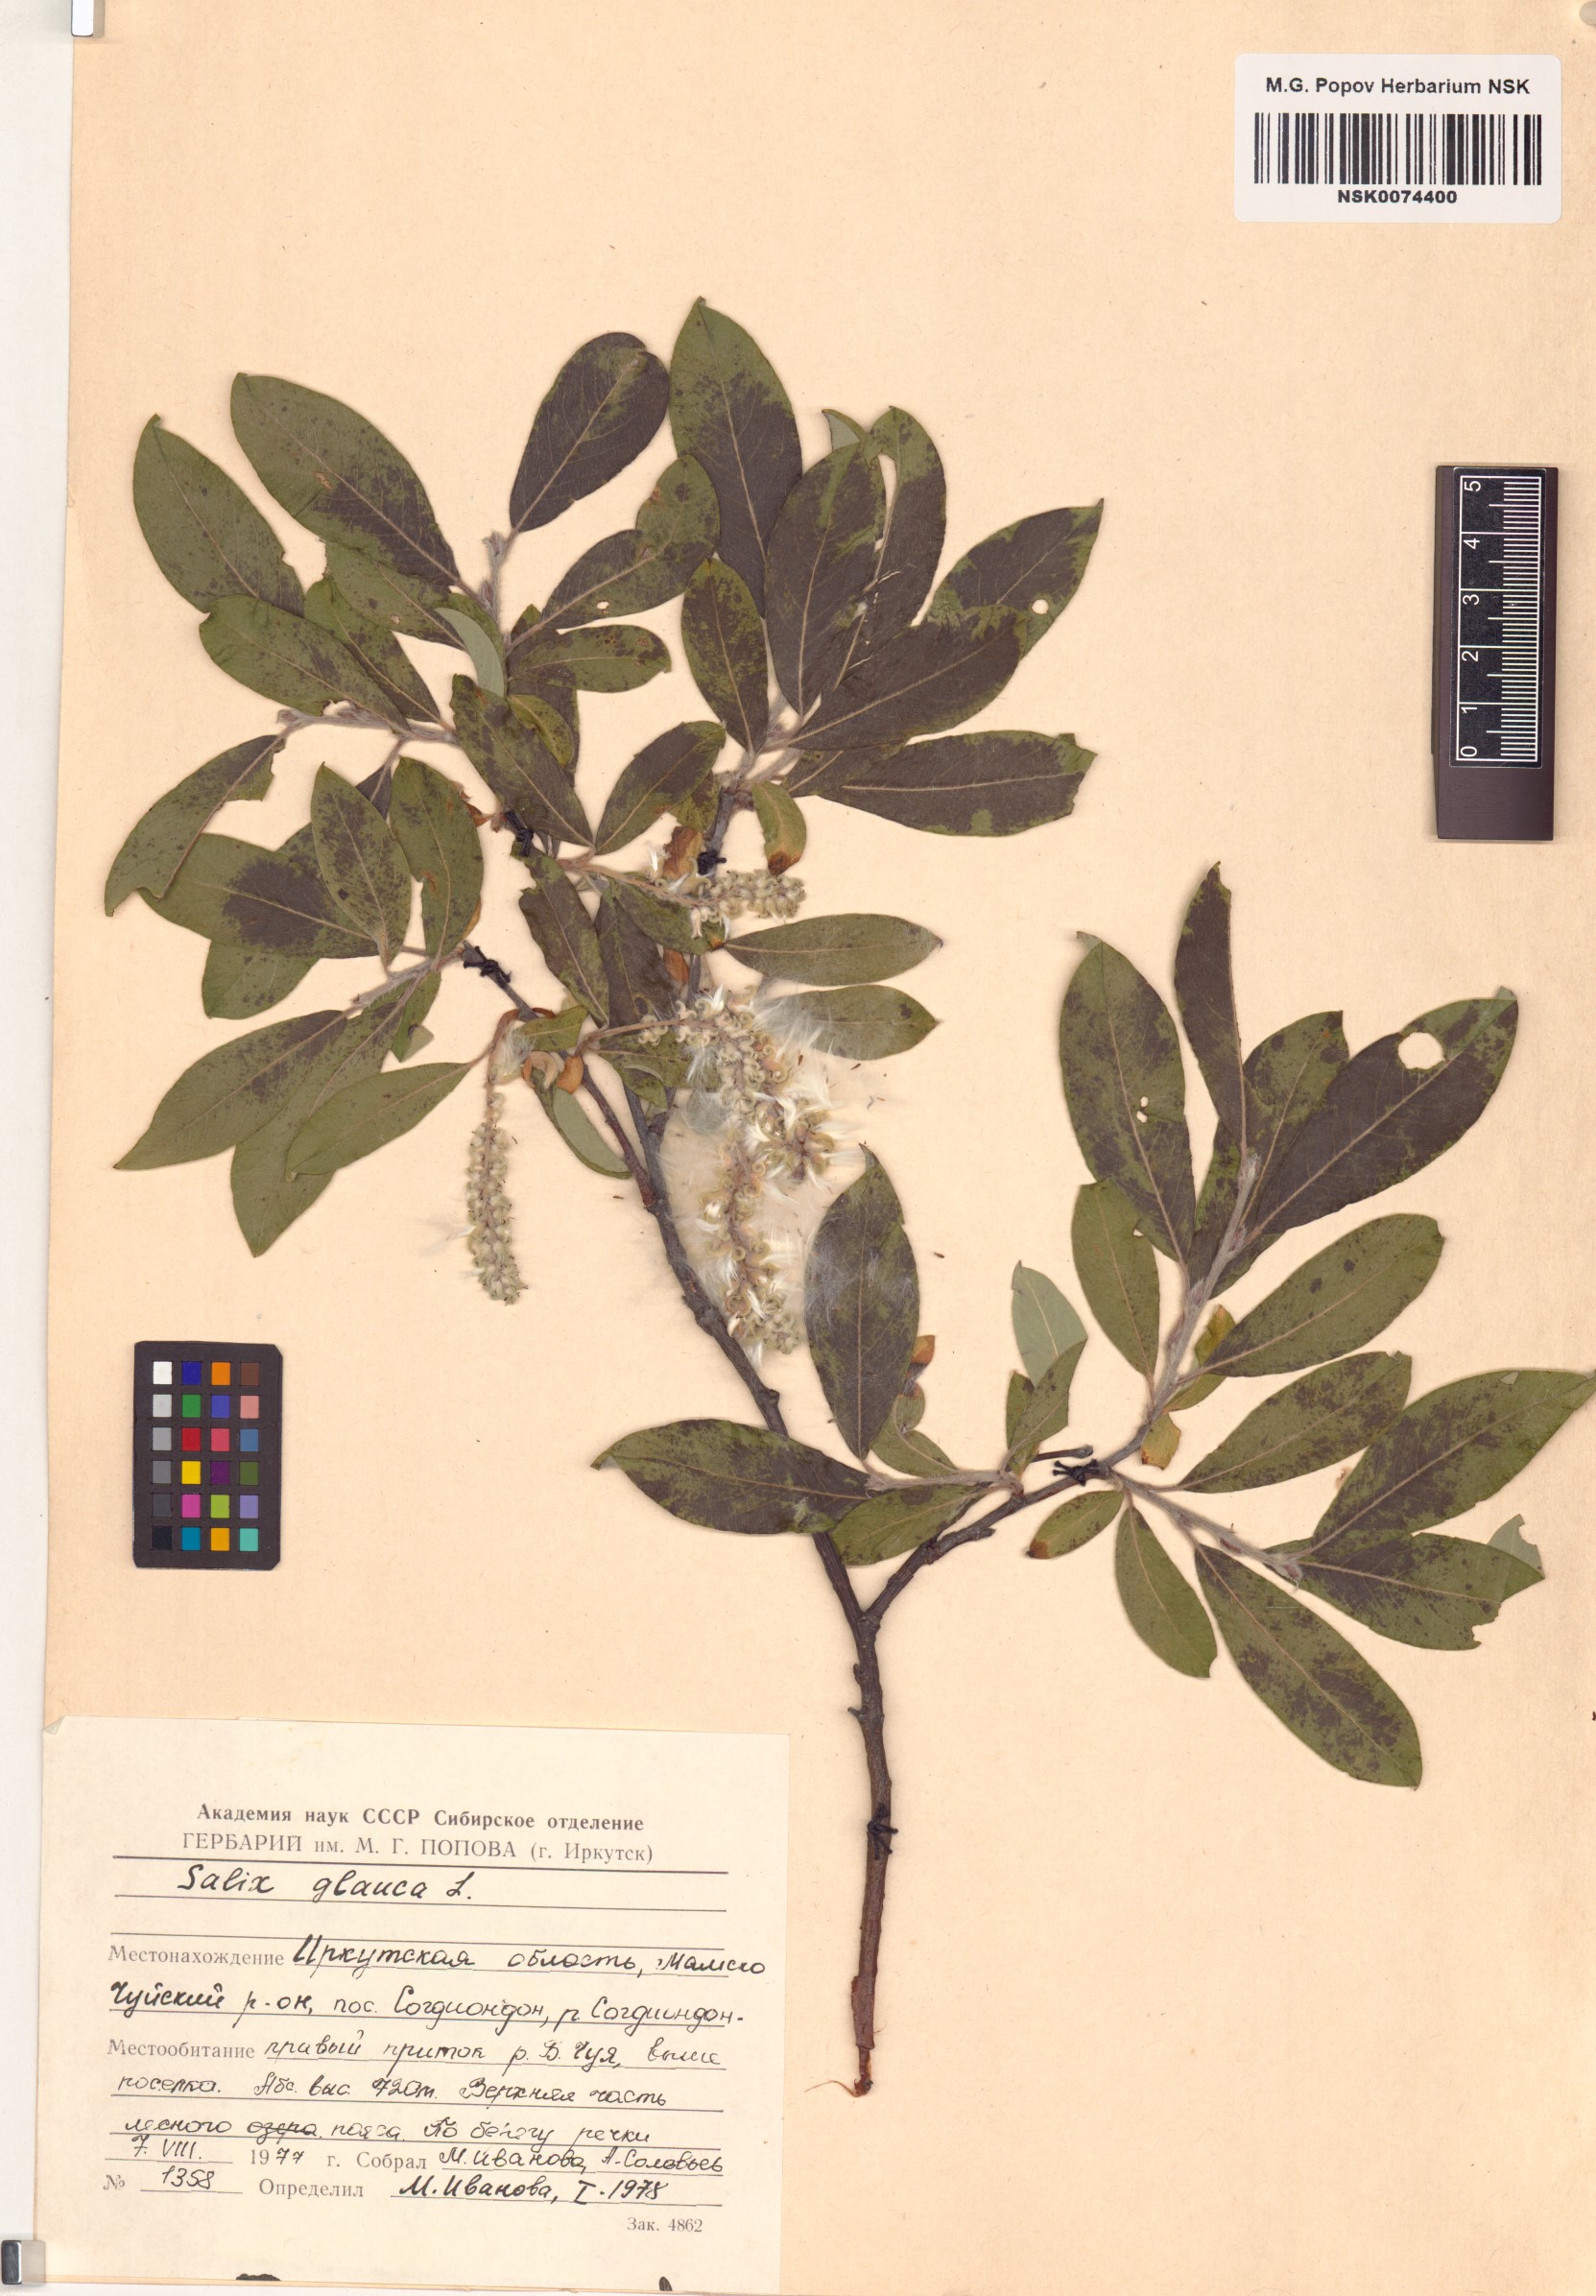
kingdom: Plantae
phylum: Tracheophyta
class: Magnoliopsida
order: Malpighiales
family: Salicaceae
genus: Salix
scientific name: Salix glauca
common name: Glaucous willow
